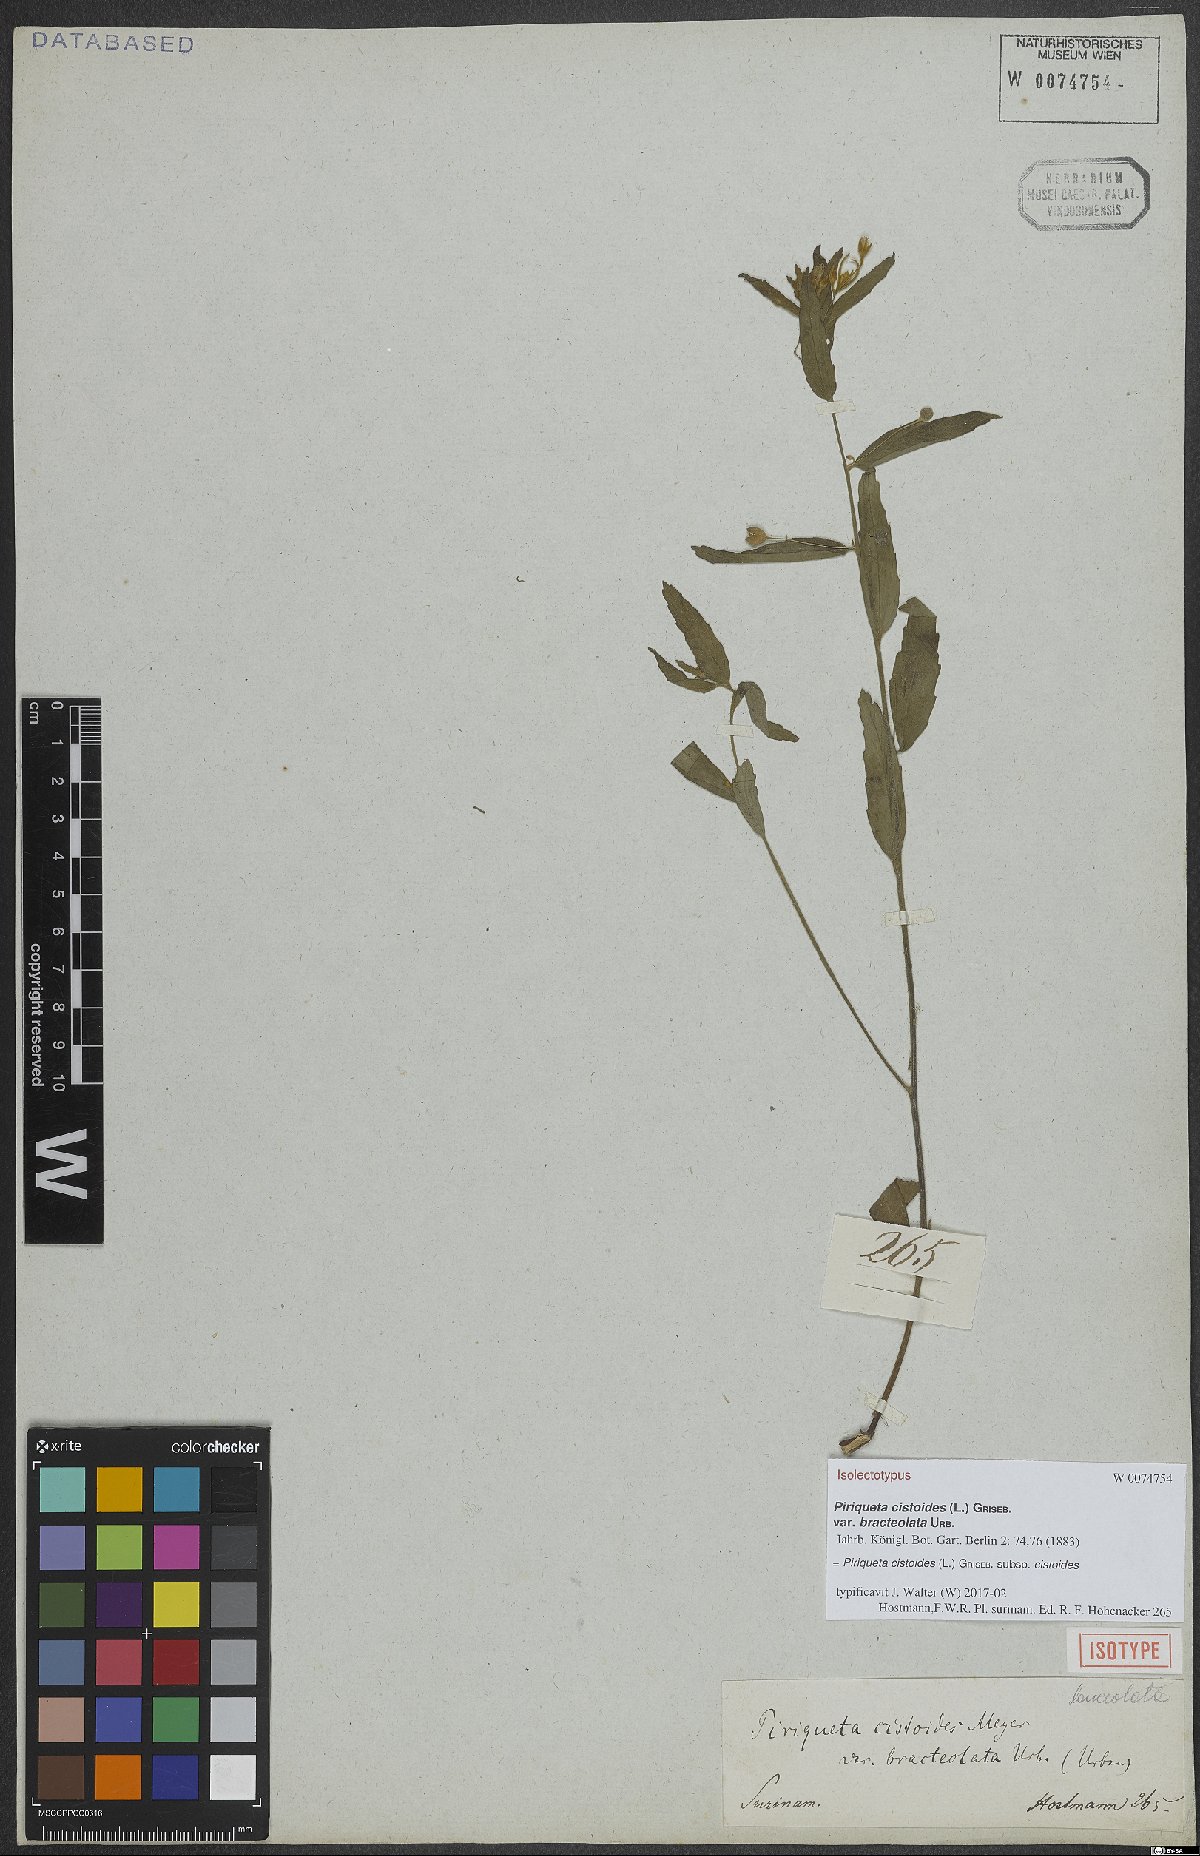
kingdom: Plantae
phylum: Tracheophyta
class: Magnoliopsida
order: Malpighiales
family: Turneraceae
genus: Piriqueta
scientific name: Piriqueta cistoides
